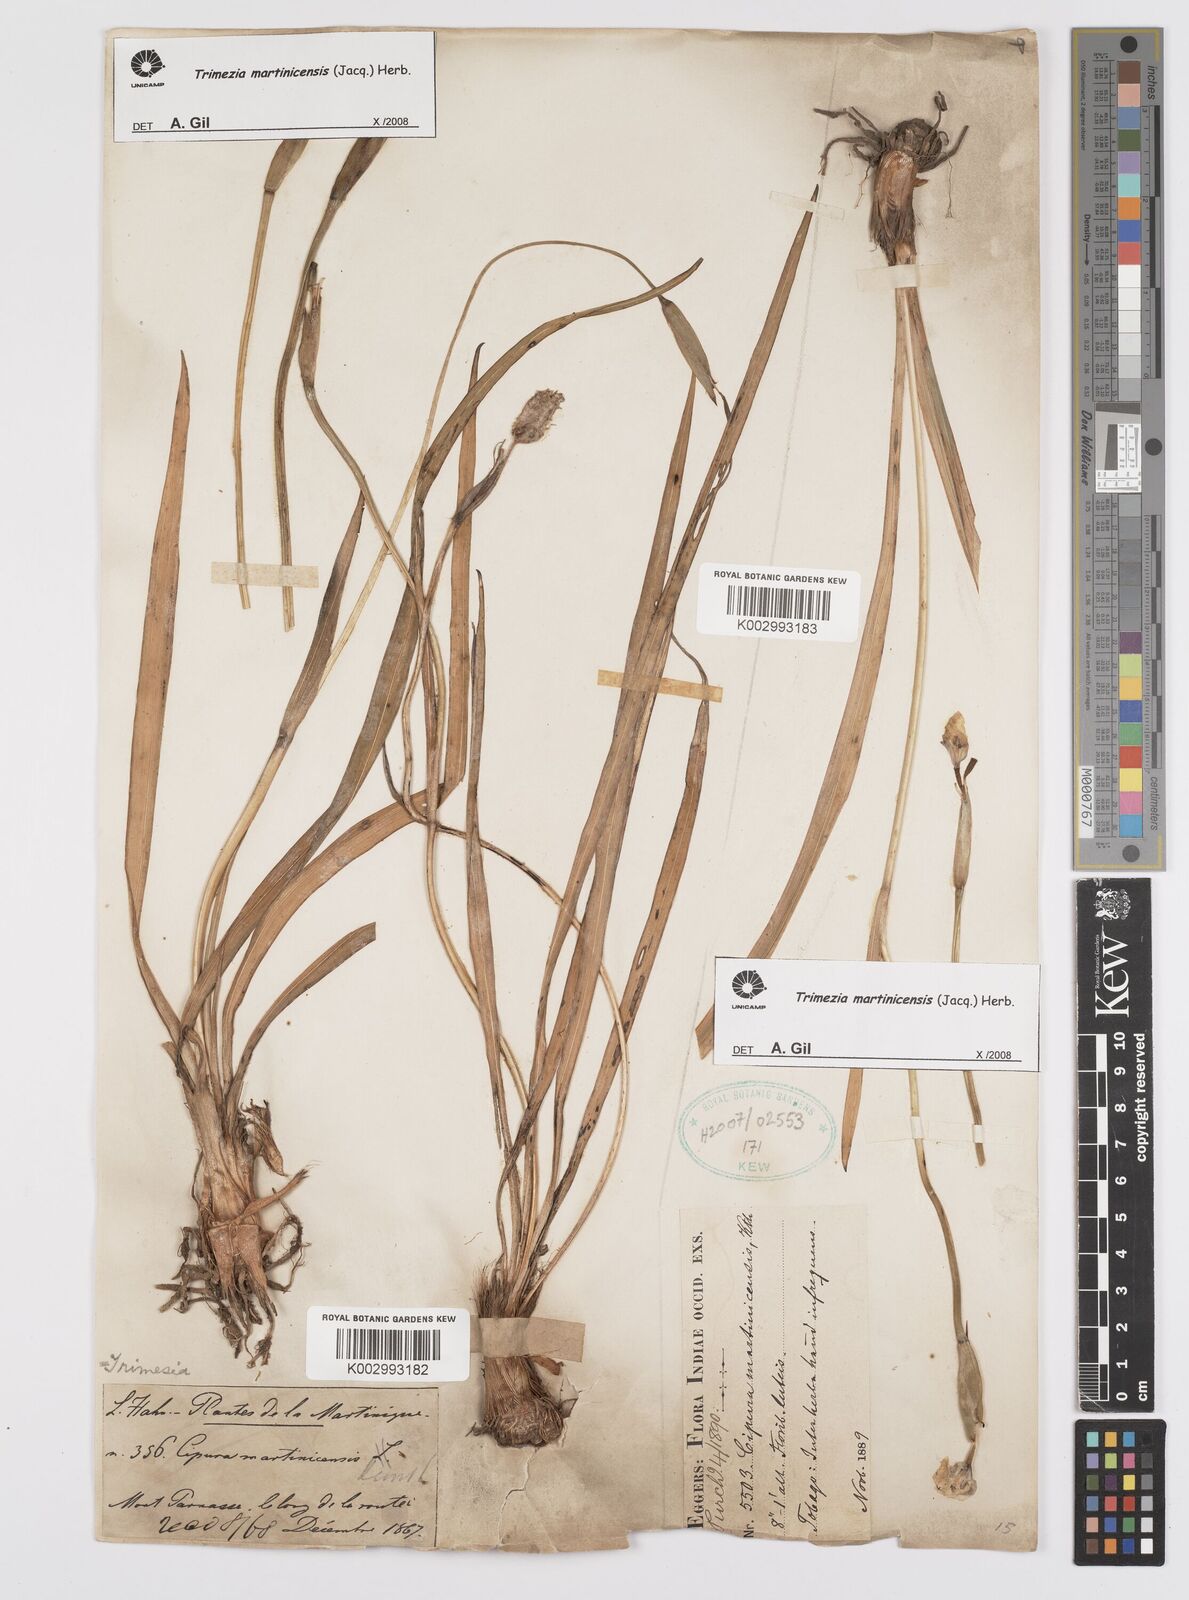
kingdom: Plantae
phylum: Tracheophyta
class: Liliopsida
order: Asparagales
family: Iridaceae
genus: Trimezia
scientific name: Trimezia martinicensis
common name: Martinique trimezia
